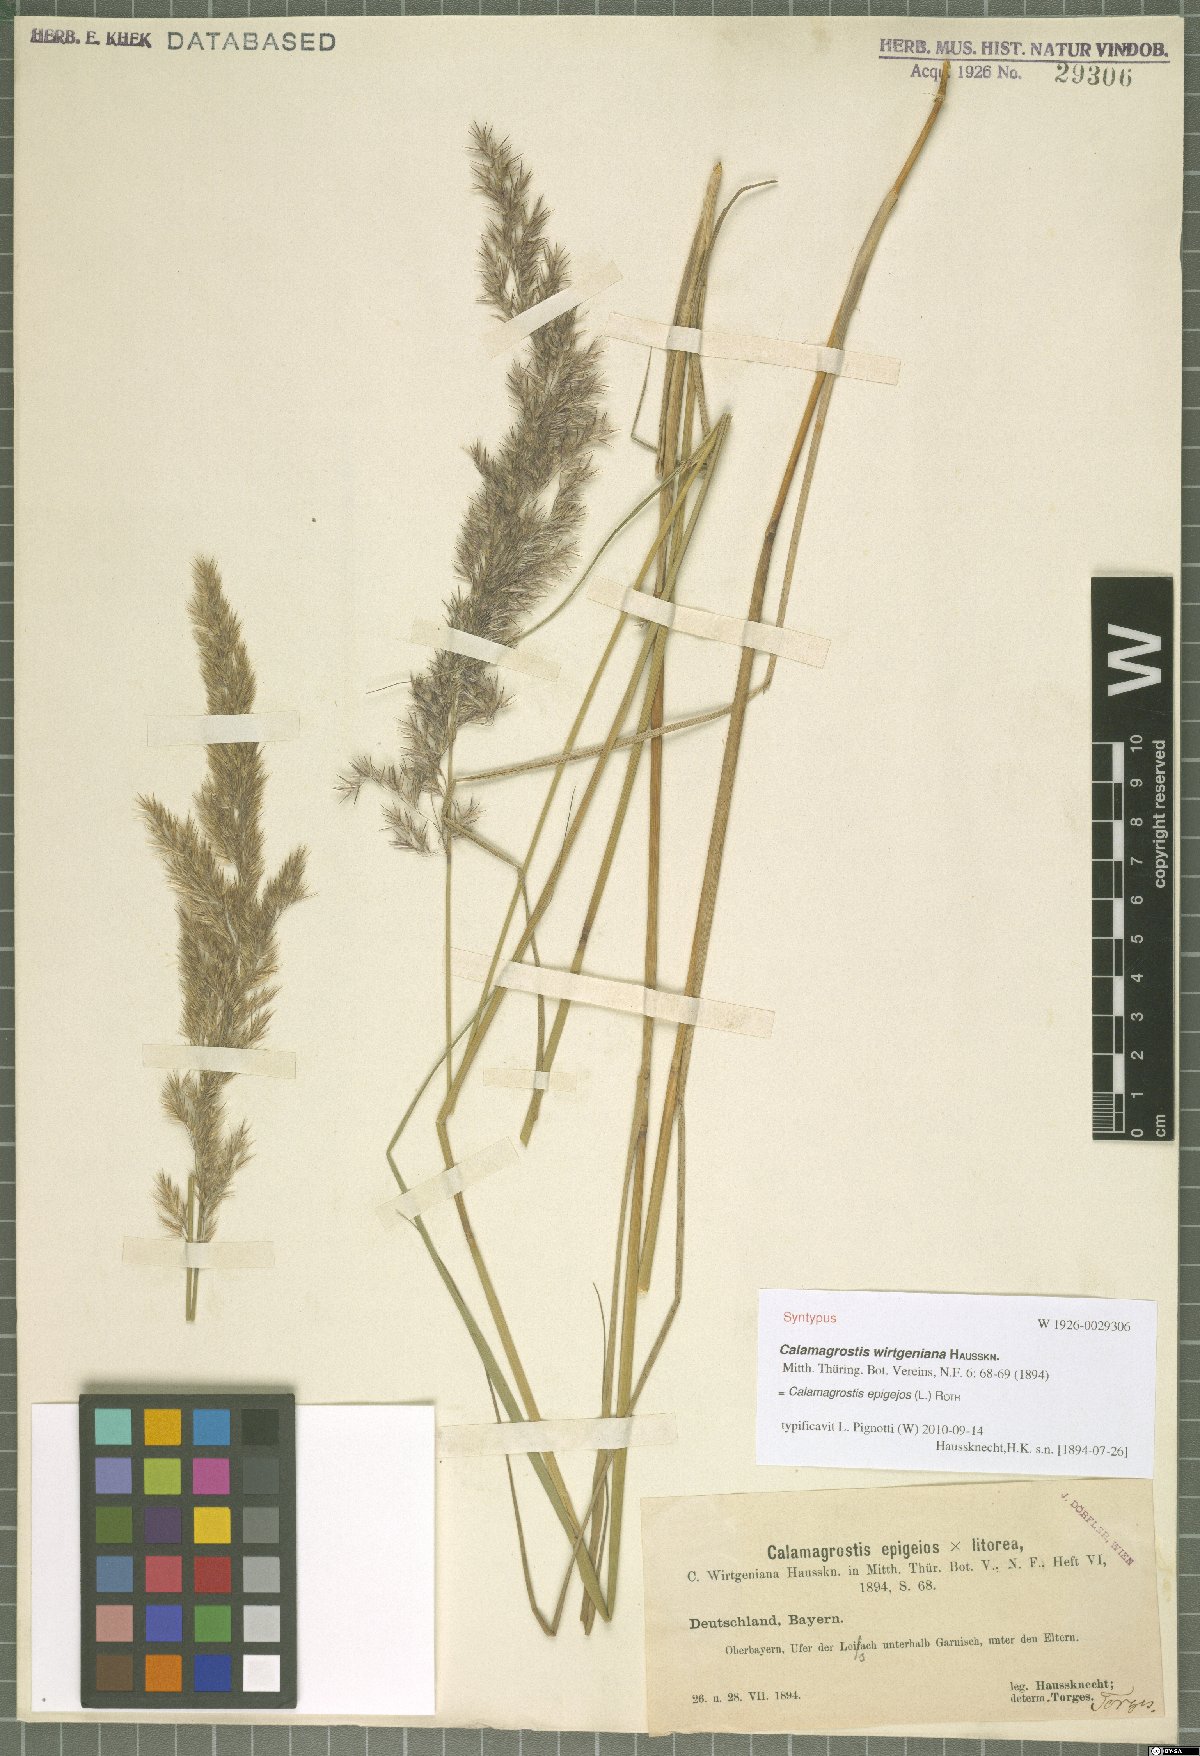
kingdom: Plantae
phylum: Tracheophyta
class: Liliopsida
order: Poales
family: Poaceae
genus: Calamagrostis
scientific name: Calamagrostis epigejos
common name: Wood small-reed
